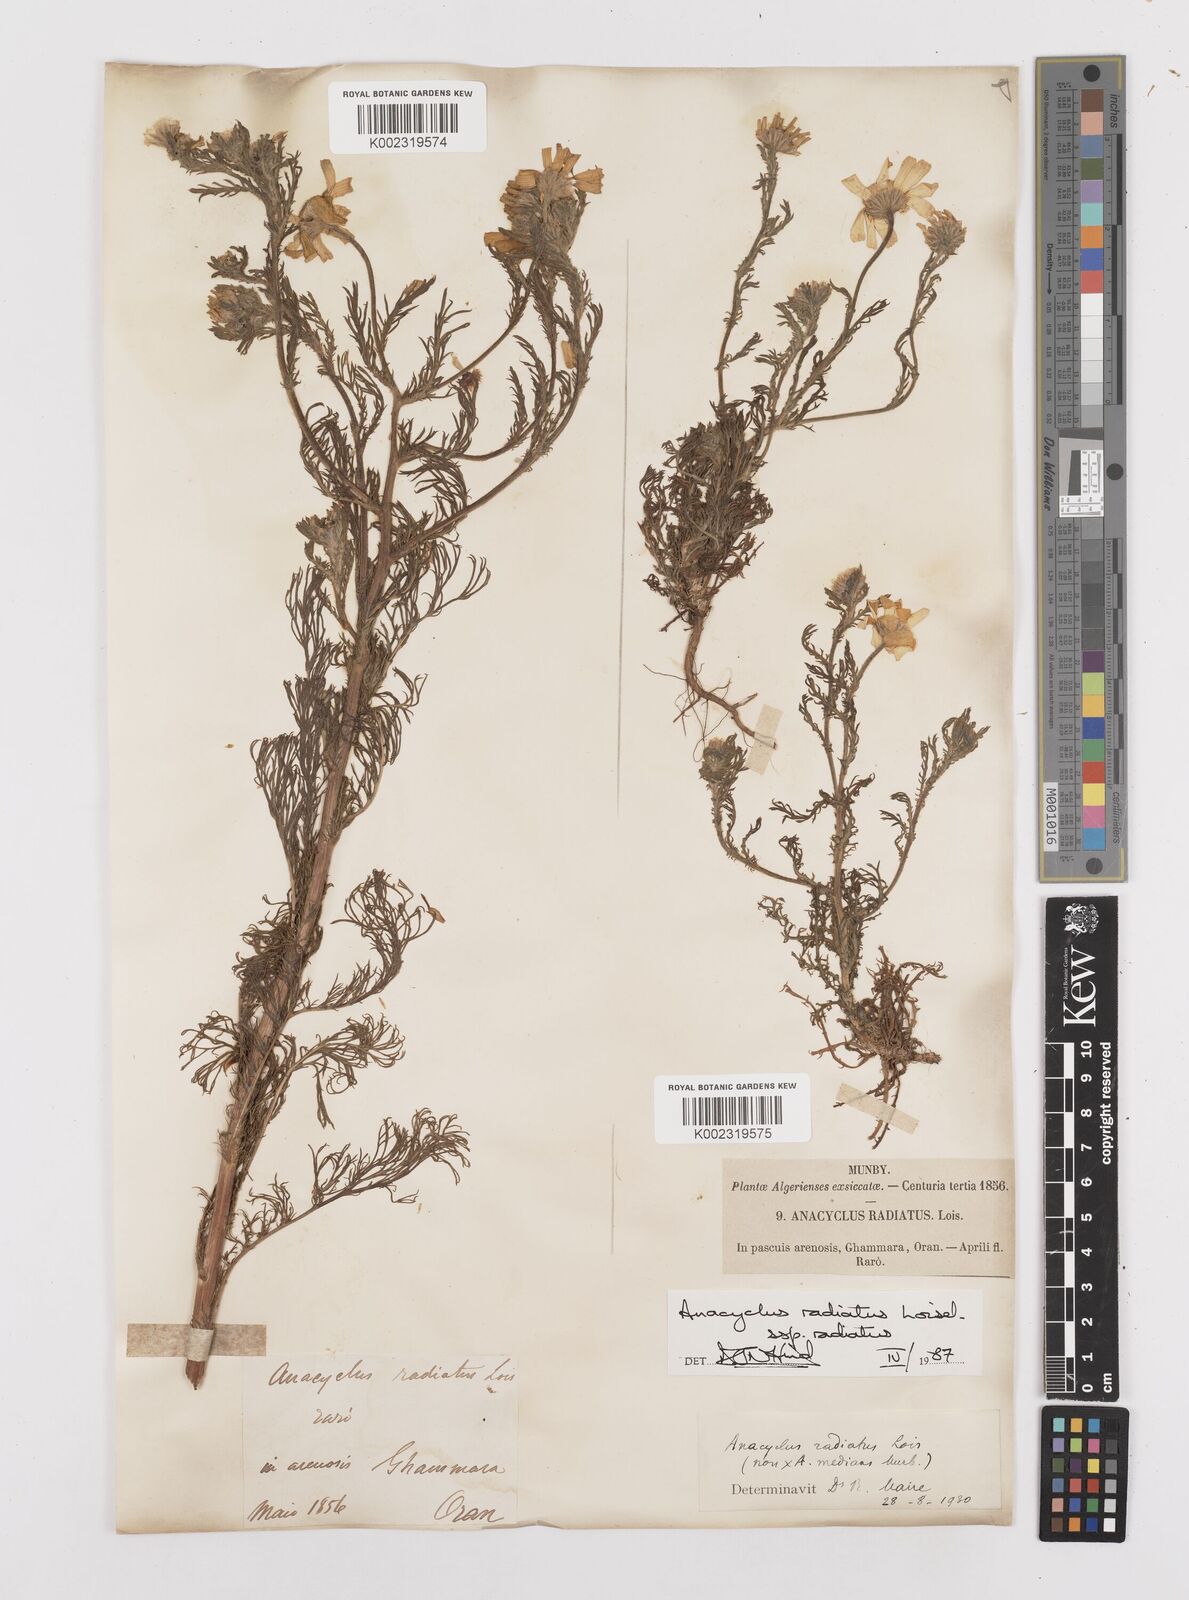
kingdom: Plantae
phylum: Tracheophyta
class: Magnoliopsida
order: Asterales
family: Asteraceae
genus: Anacyclus
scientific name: Anacyclus radiatus
